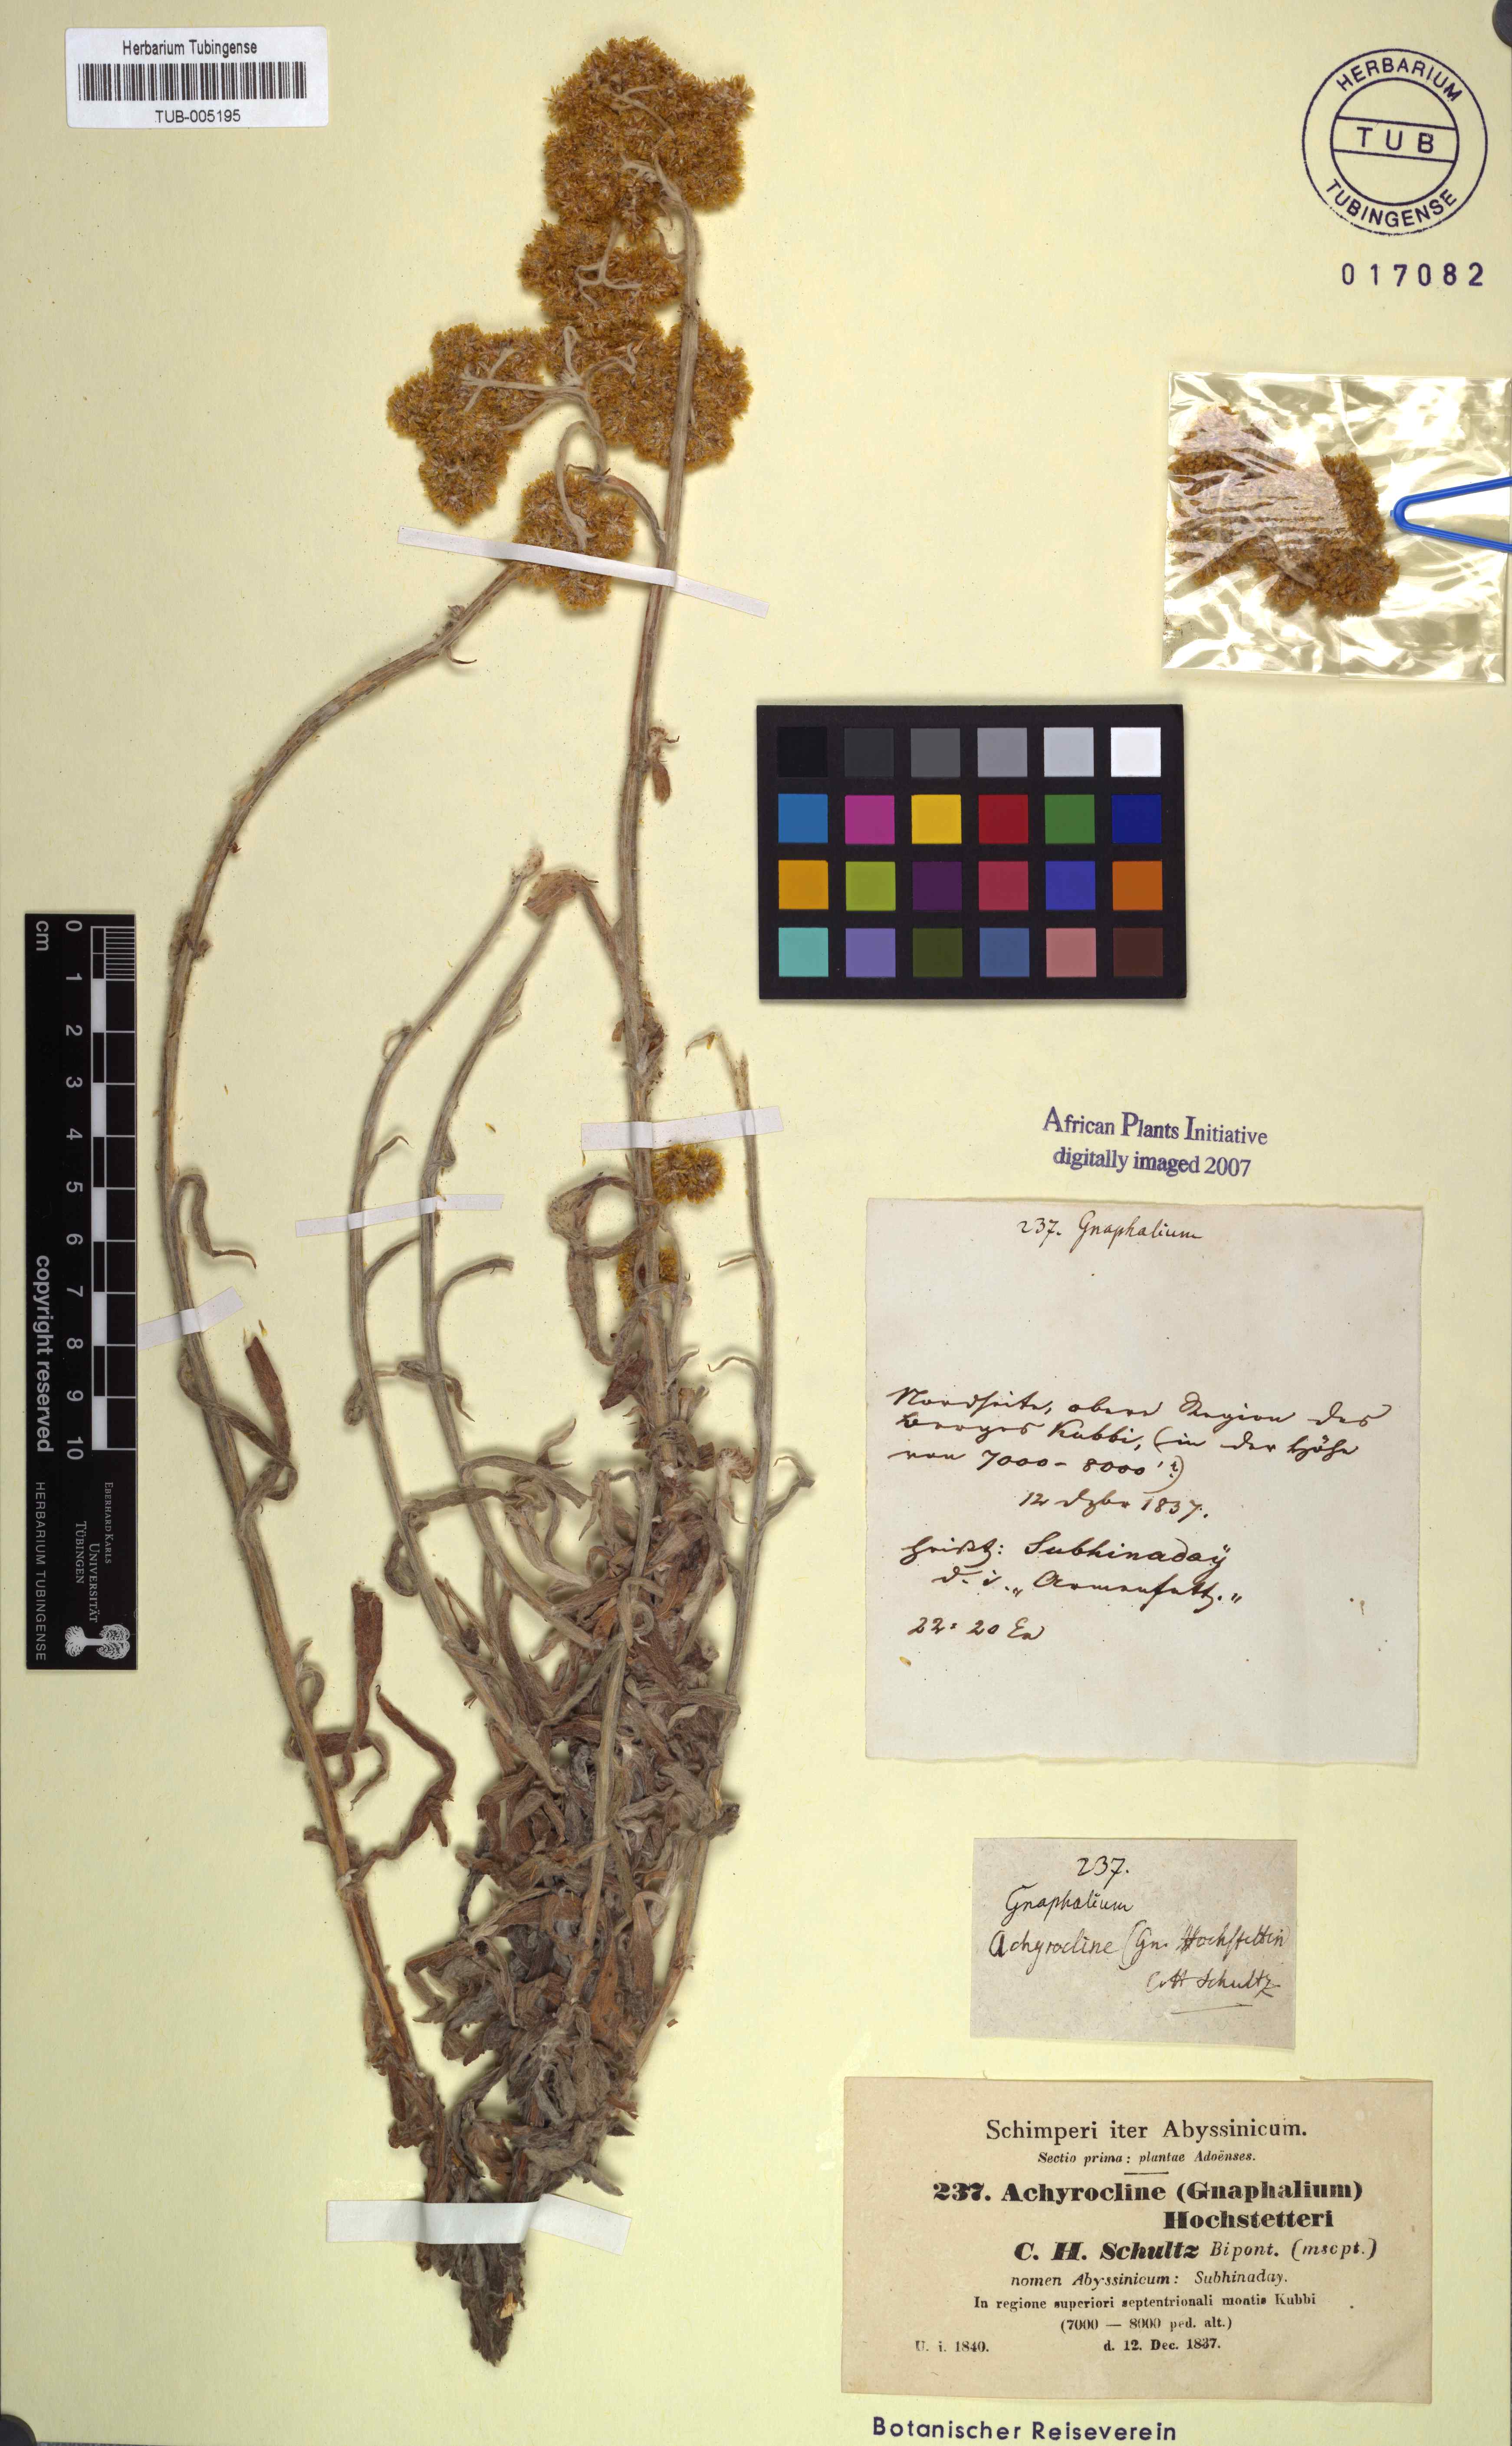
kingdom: Plantae
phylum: Tracheophyta
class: Magnoliopsida
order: Asterales
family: Asteraceae
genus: Helichrysum
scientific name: Helichrysum odoratissimum
